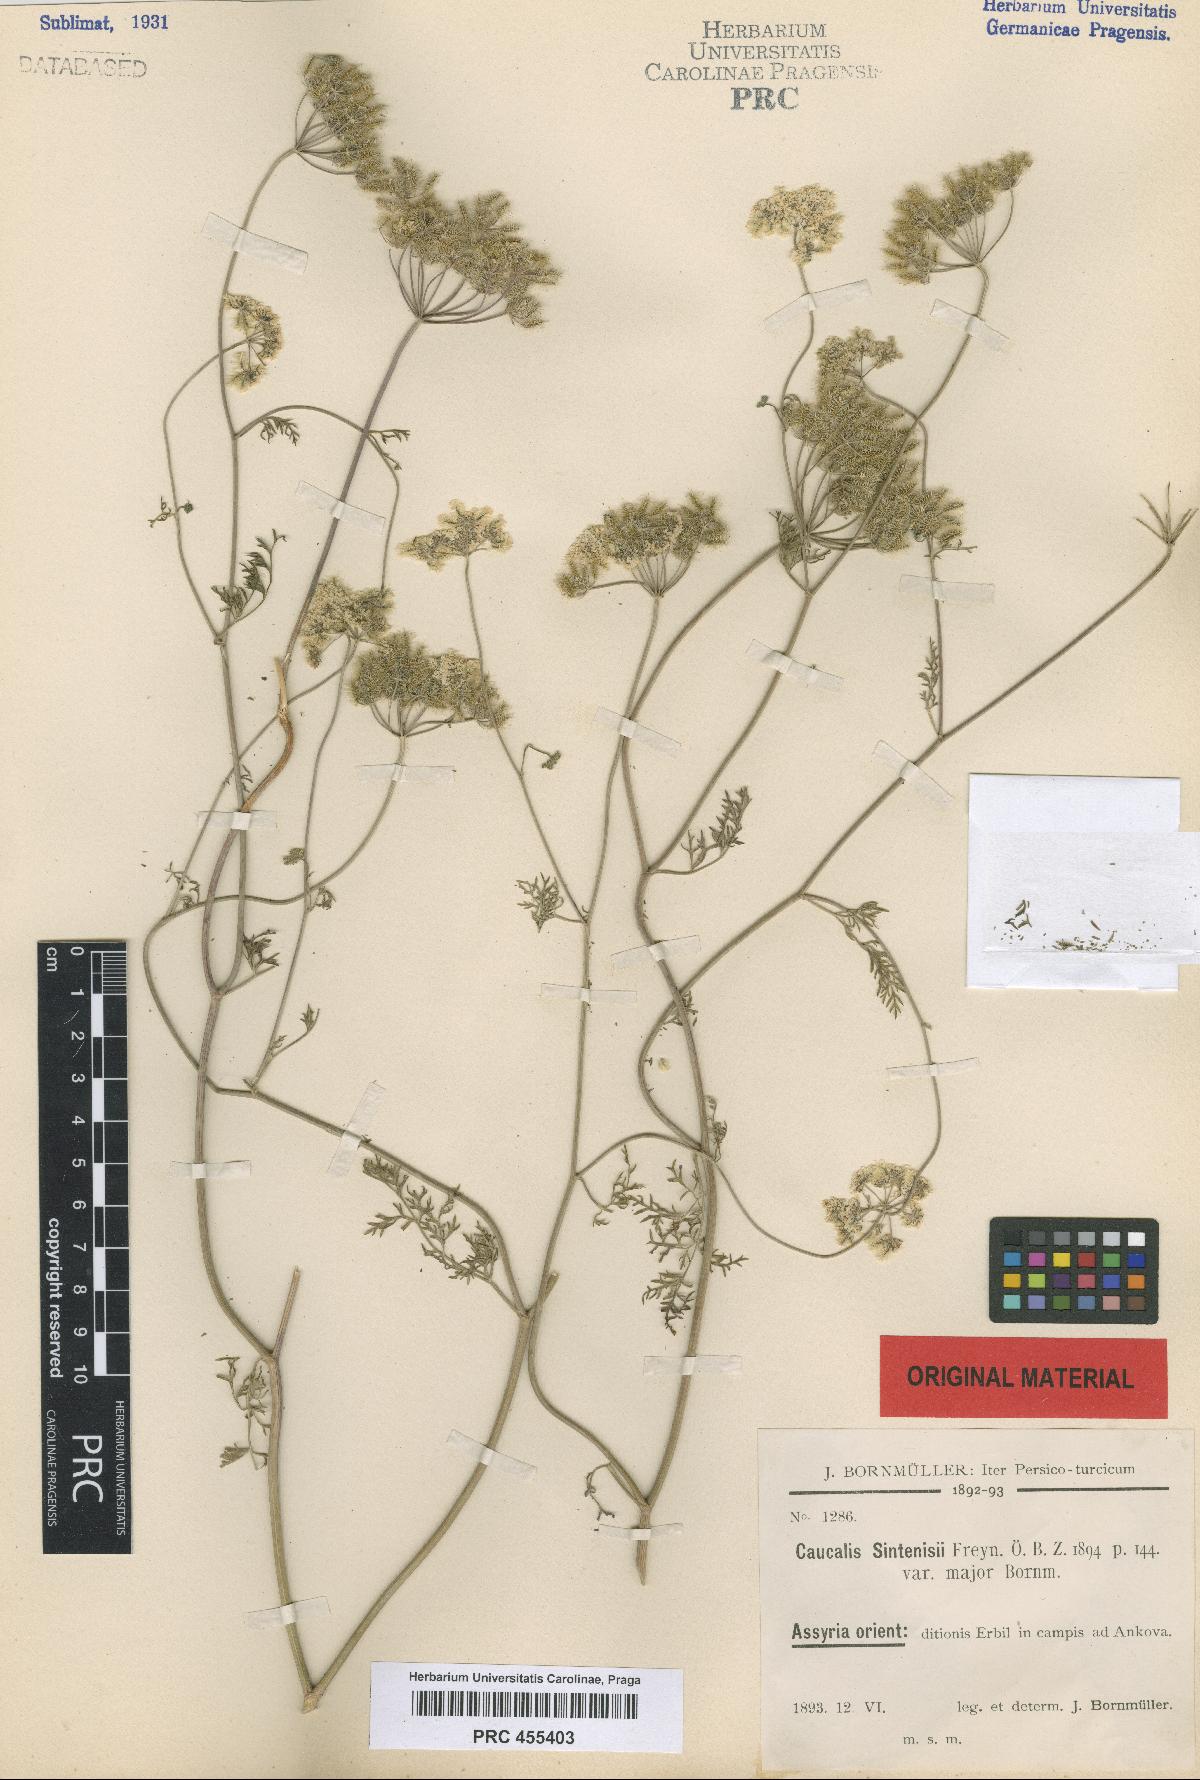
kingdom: Plantae
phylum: Tracheophyta
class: Magnoliopsida
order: Apiales
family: Apiaceae
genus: Torilis
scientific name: Torilis leptocarpa
